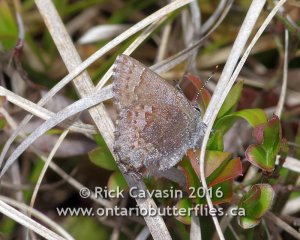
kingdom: Animalia
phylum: Arthropoda
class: Insecta
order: Lepidoptera
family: Lycaenidae
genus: Callophrys
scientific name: Callophrys polios
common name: Hoary Elfin
